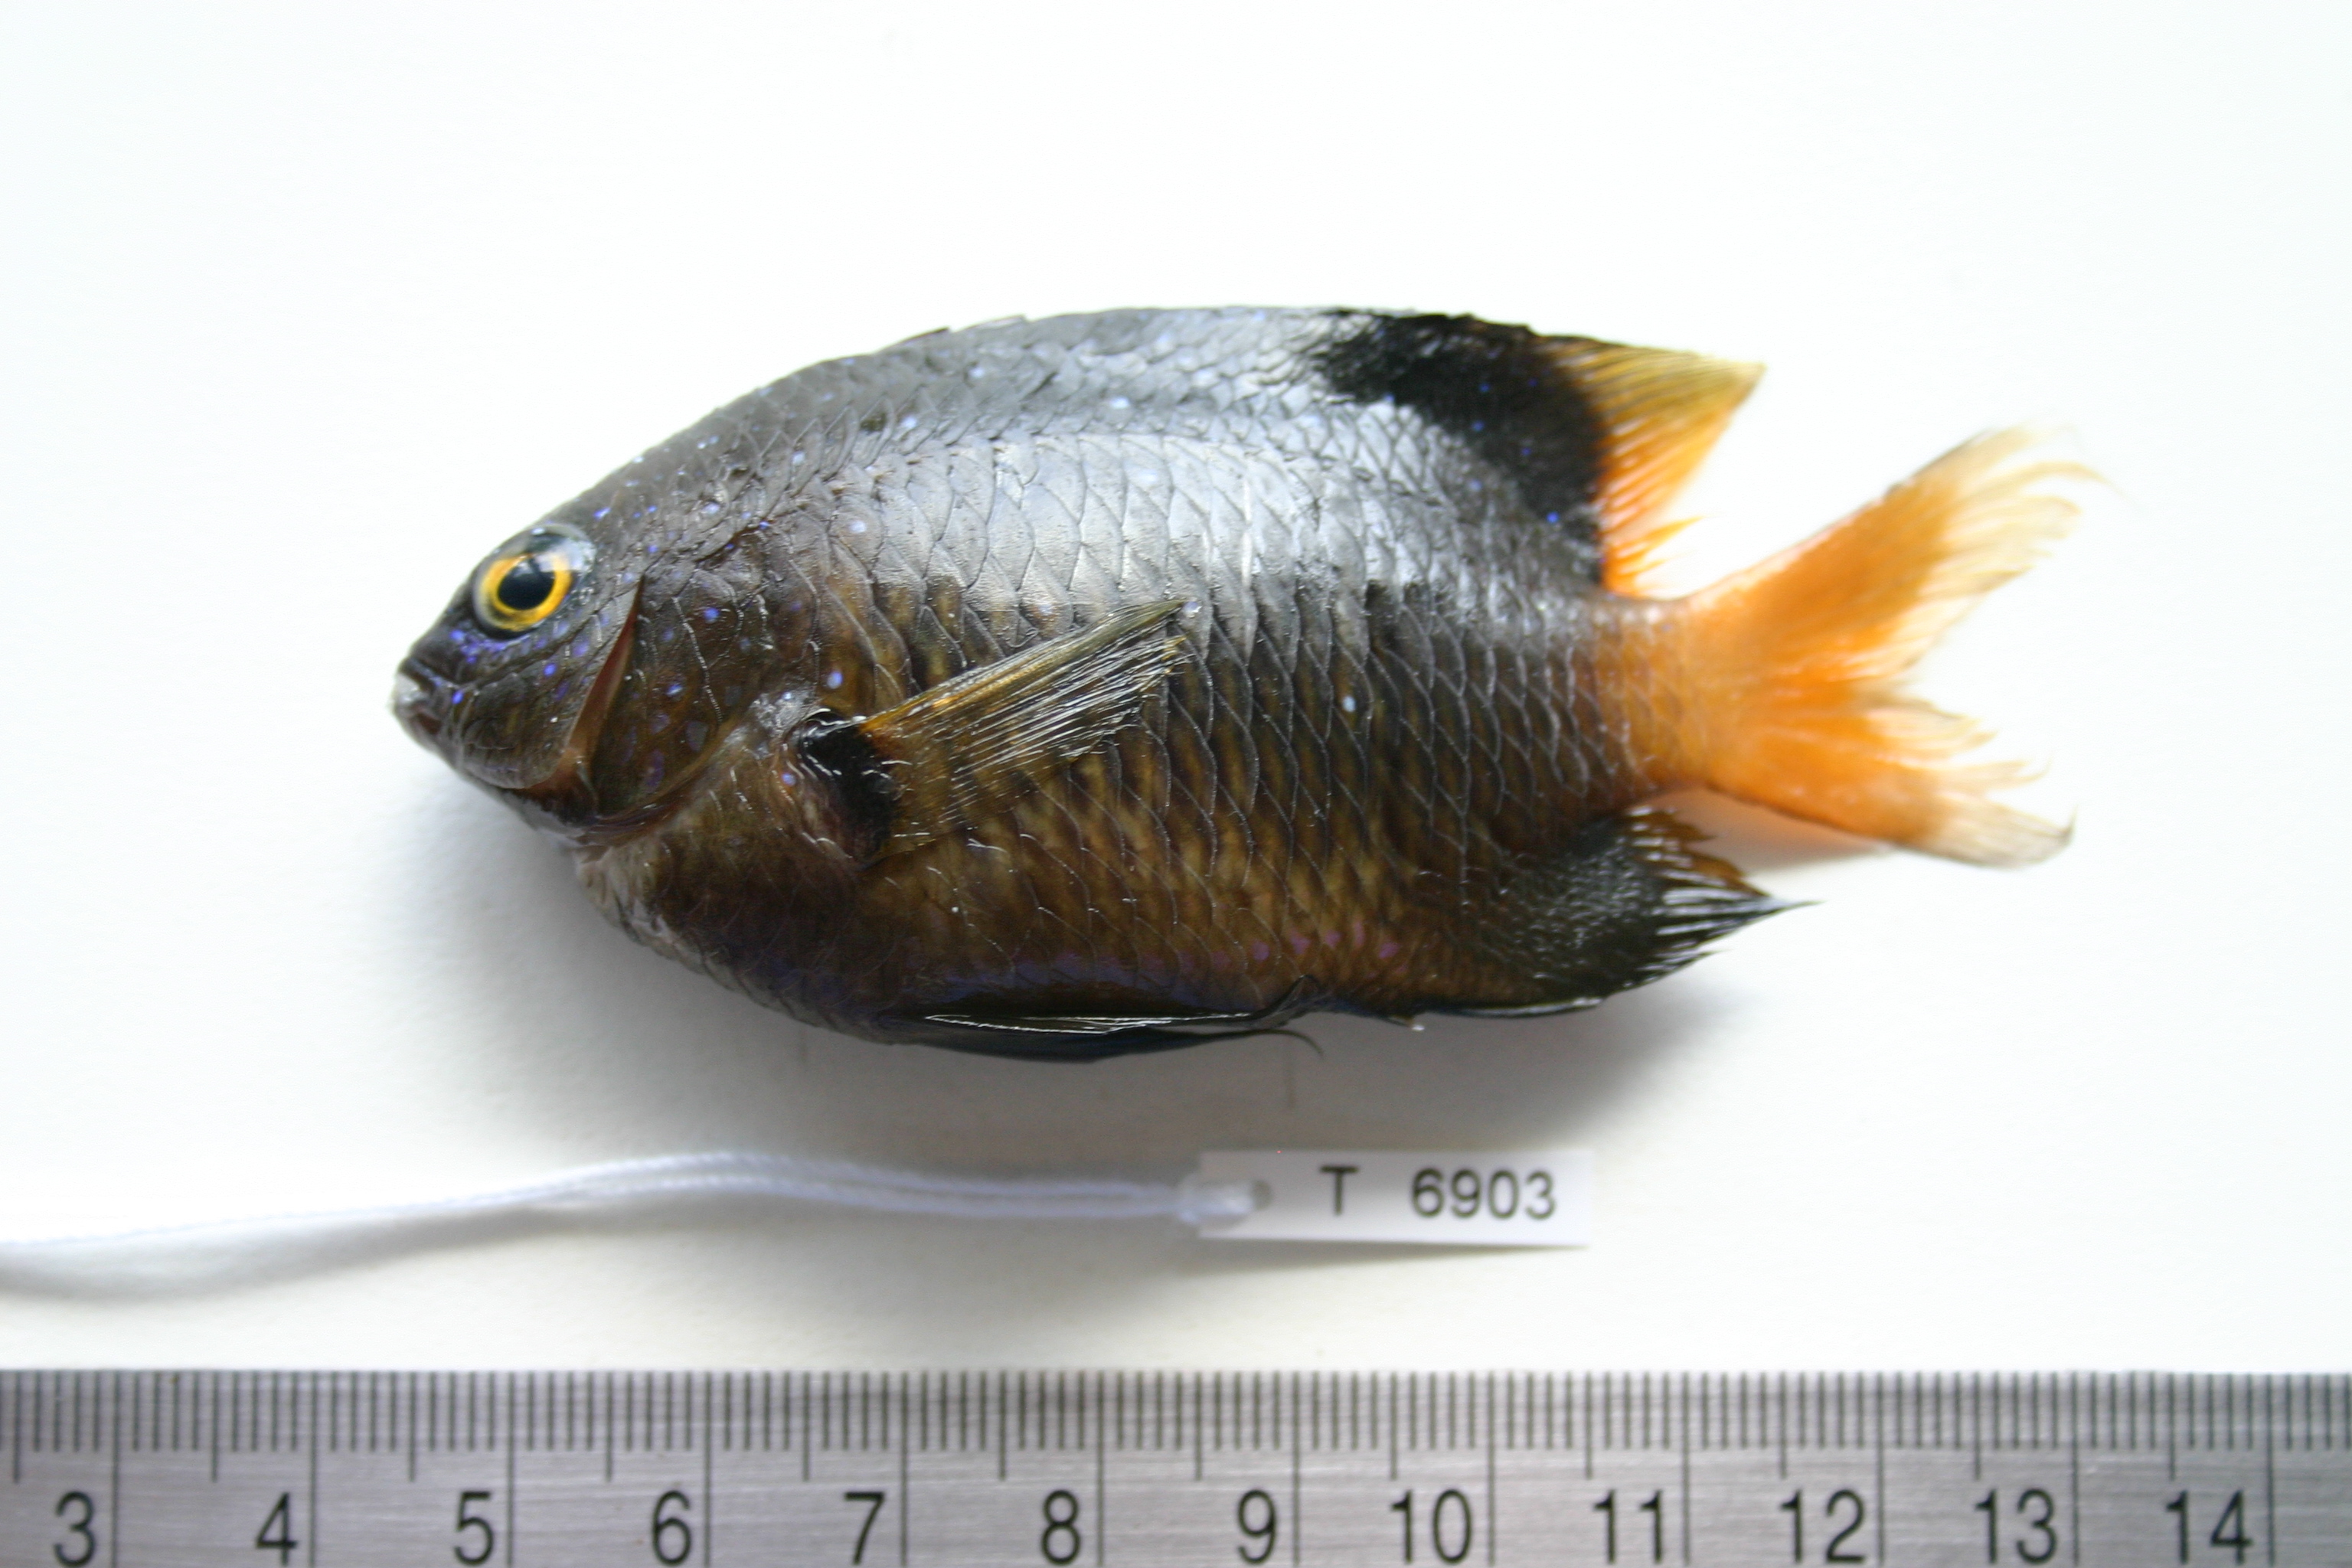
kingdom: Animalia
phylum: Chordata
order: Perciformes
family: Pomacentridae
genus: Plectroglyphidodon
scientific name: Plectroglyphidodon lacrymatus
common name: Jewel damsel
